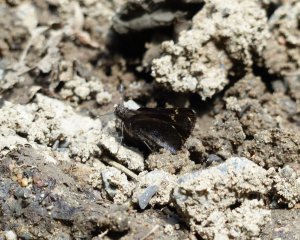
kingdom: Animalia
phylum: Arthropoda
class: Insecta
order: Lepidoptera
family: Hesperiidae
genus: Mastor
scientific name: Mastor vialis
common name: Common Roadside-Skipper
